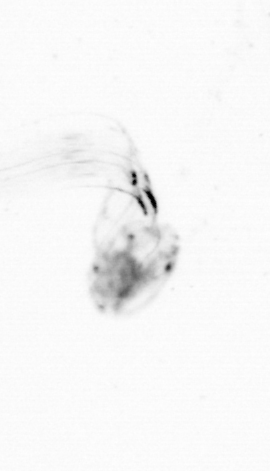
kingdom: Animalia
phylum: Chordata
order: Copelata
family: Fritillariidae
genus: Appendicularia
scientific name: Appendicularia
